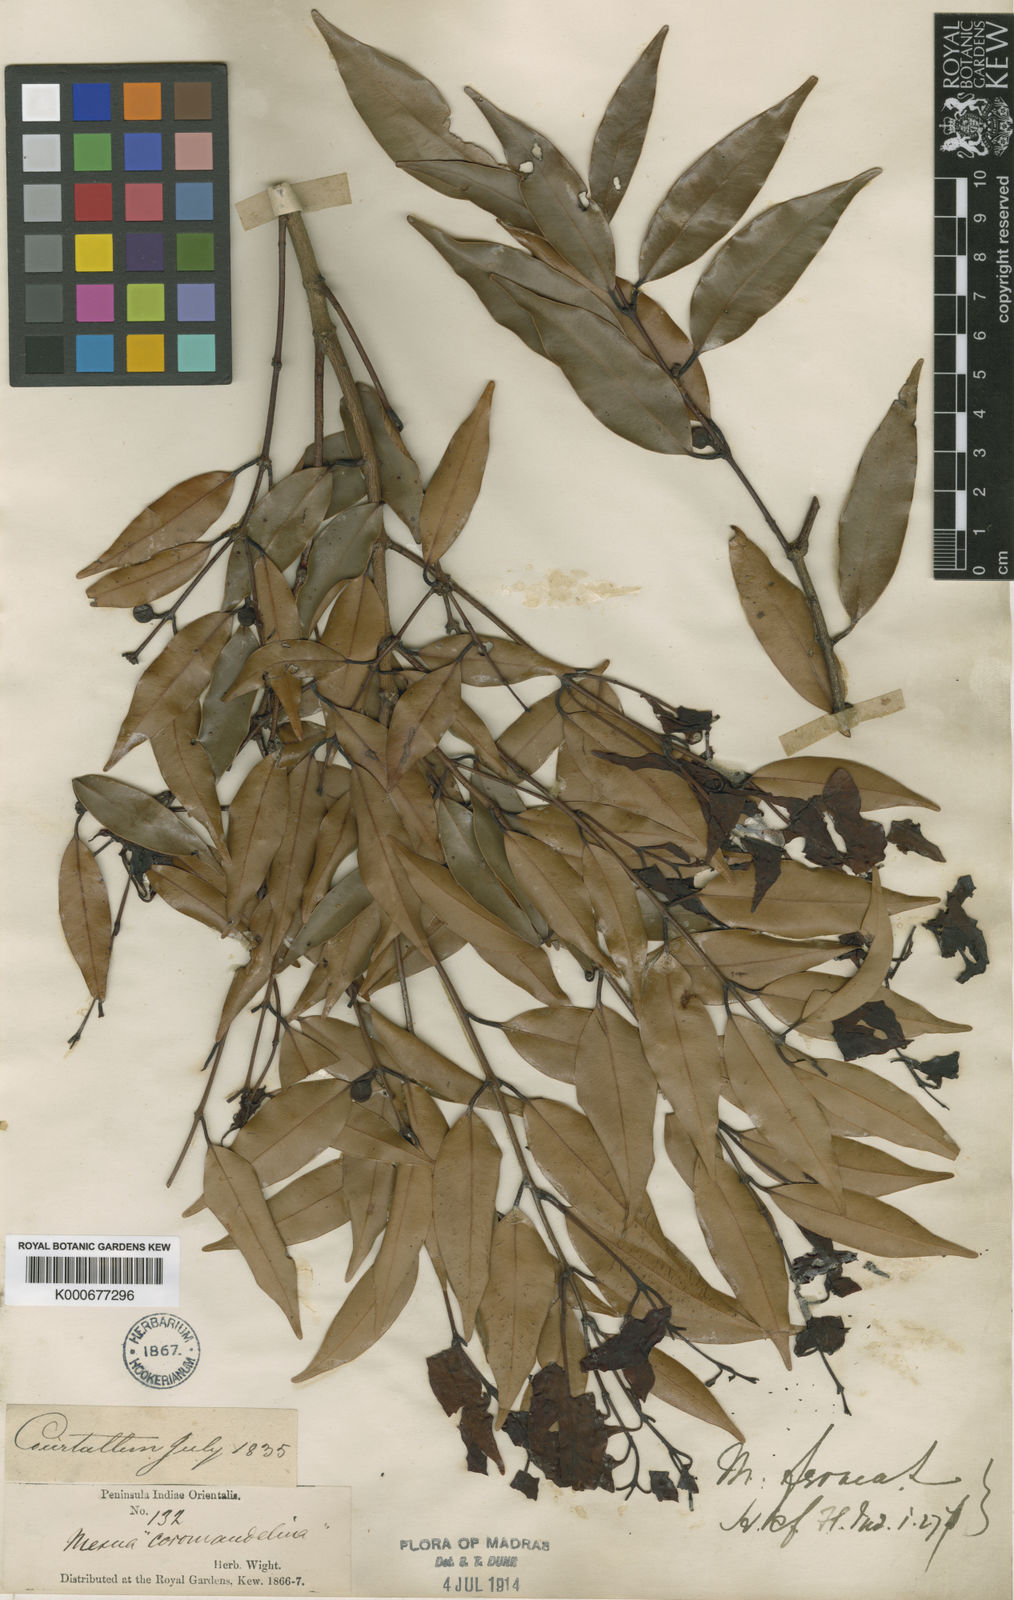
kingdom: Plantae
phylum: Tracheophyta
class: Magnoliopsida
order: Malpighiales
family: Calophyllaceae
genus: Mesua
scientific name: Mesua
